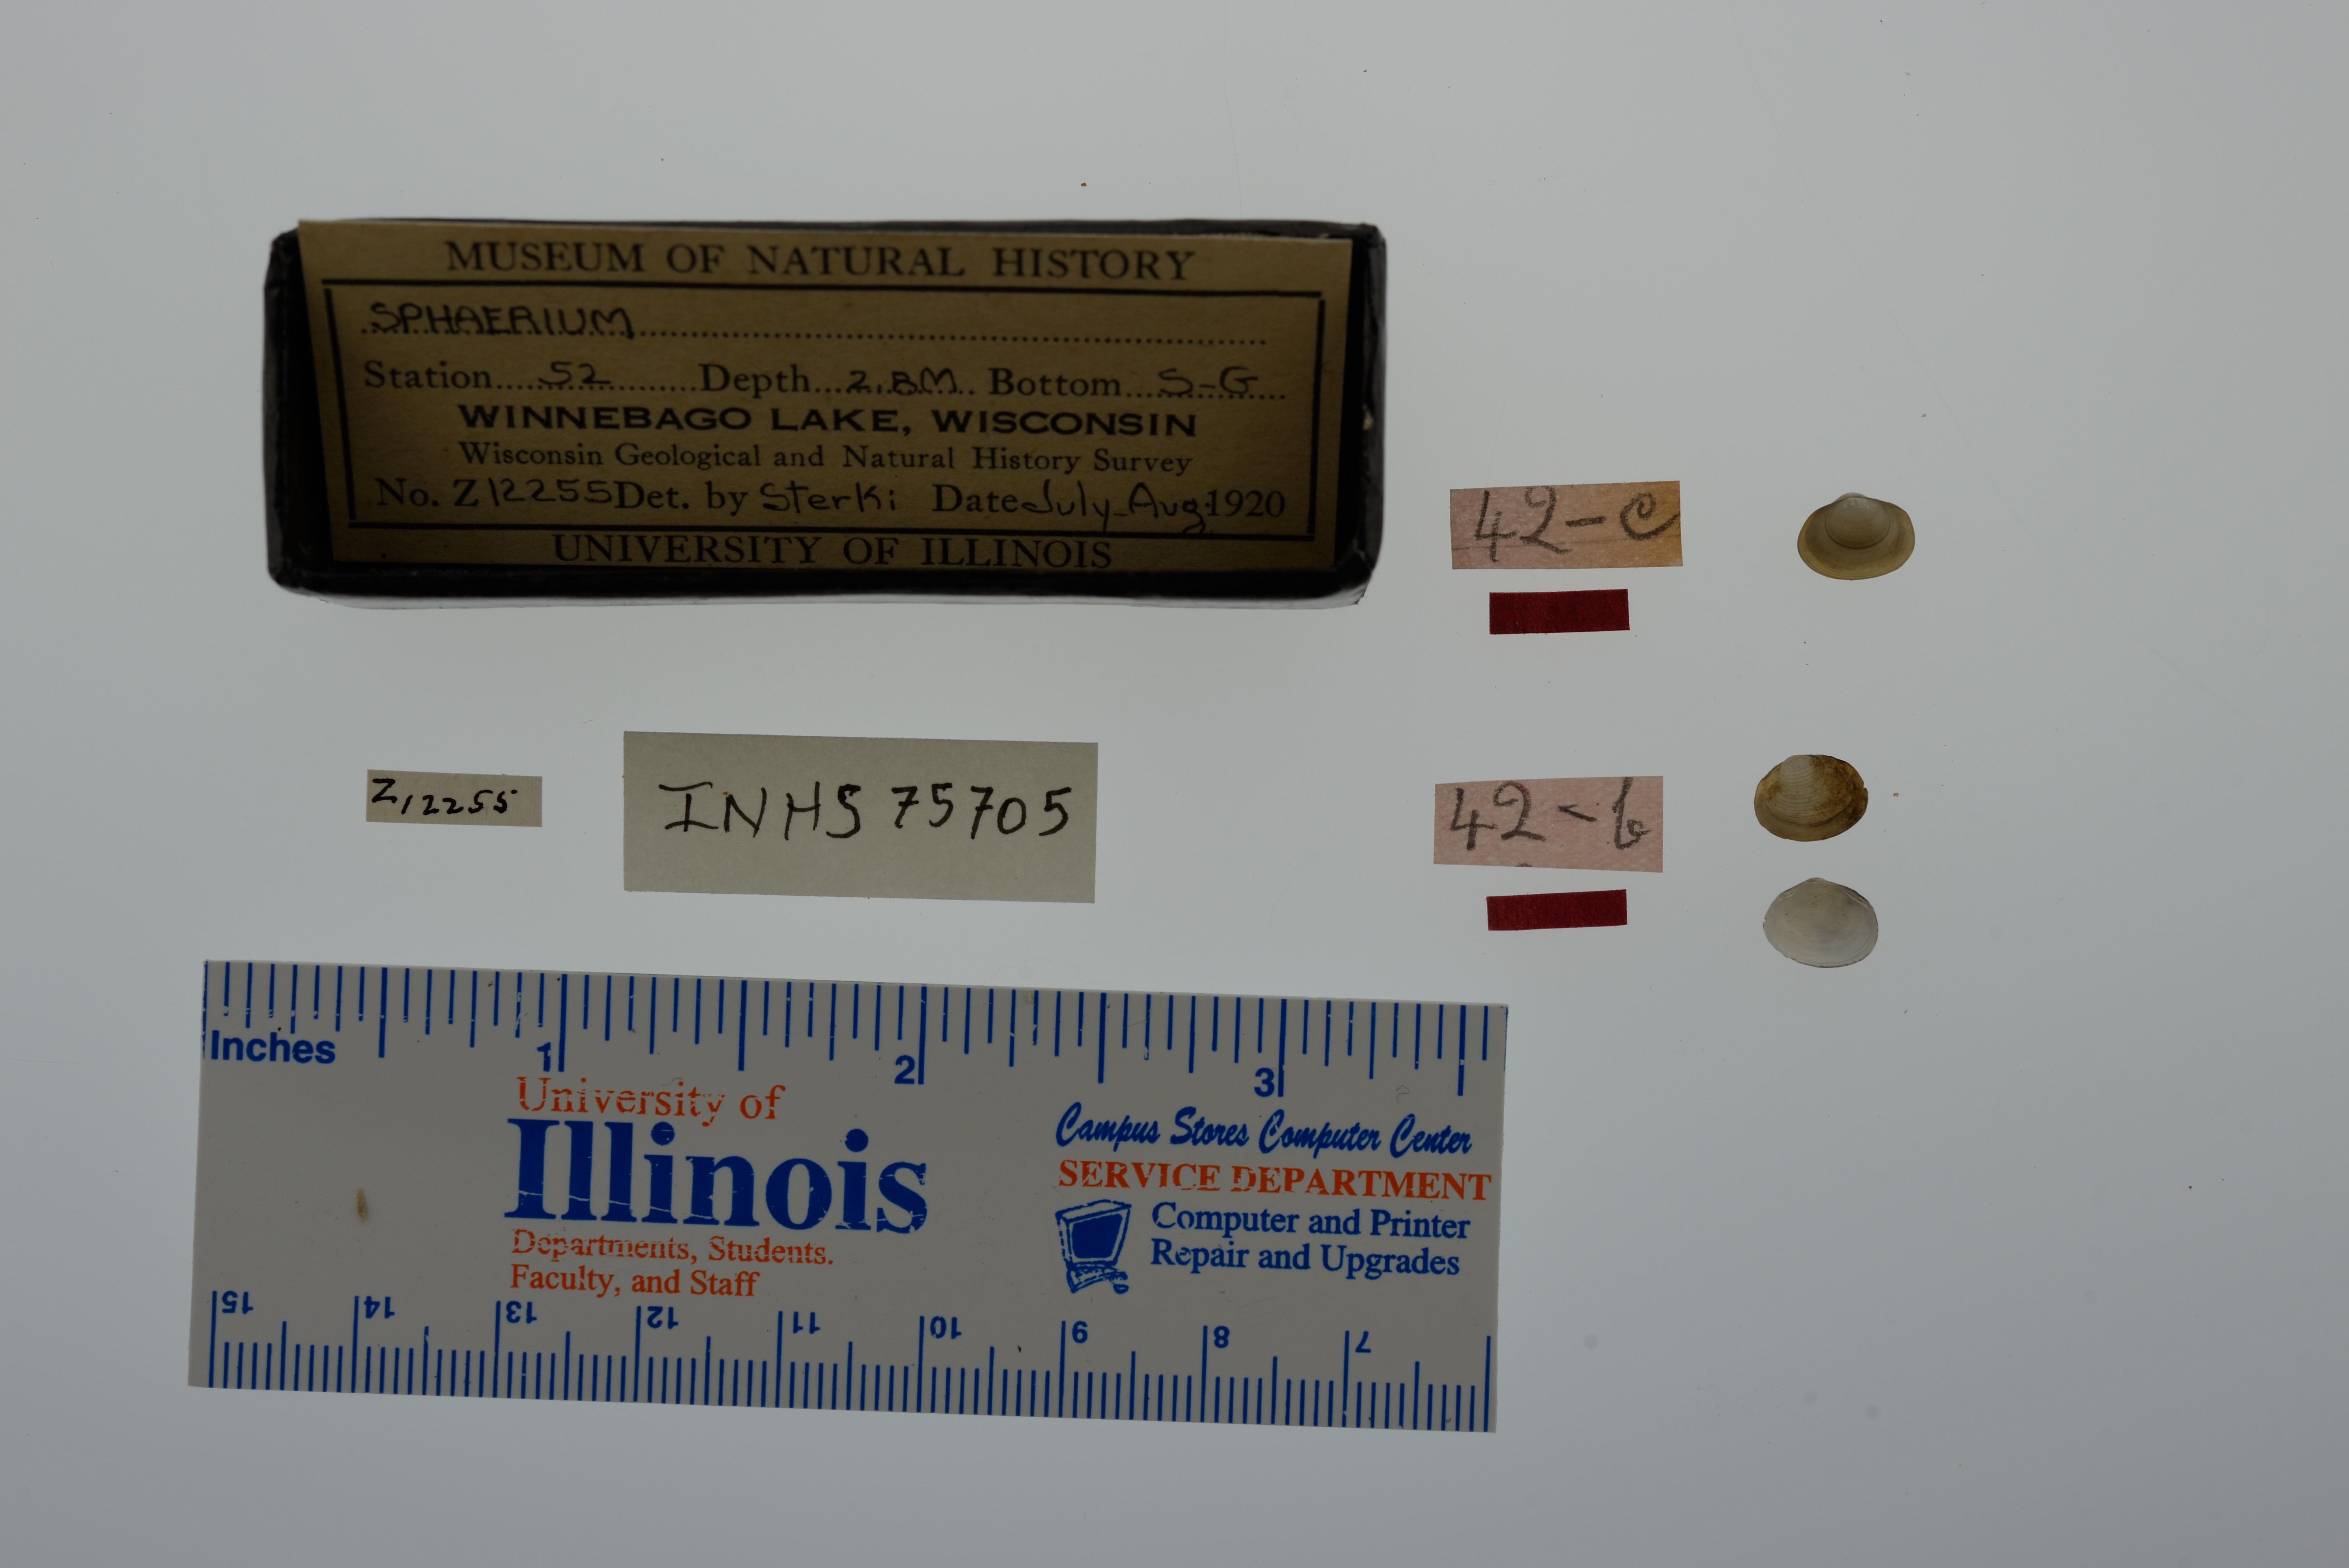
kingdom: Animalia
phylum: Mollusca
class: Bivalvia
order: Sphaeriida
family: Sphaeriidae
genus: Sphaerium
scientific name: Sphaerium
